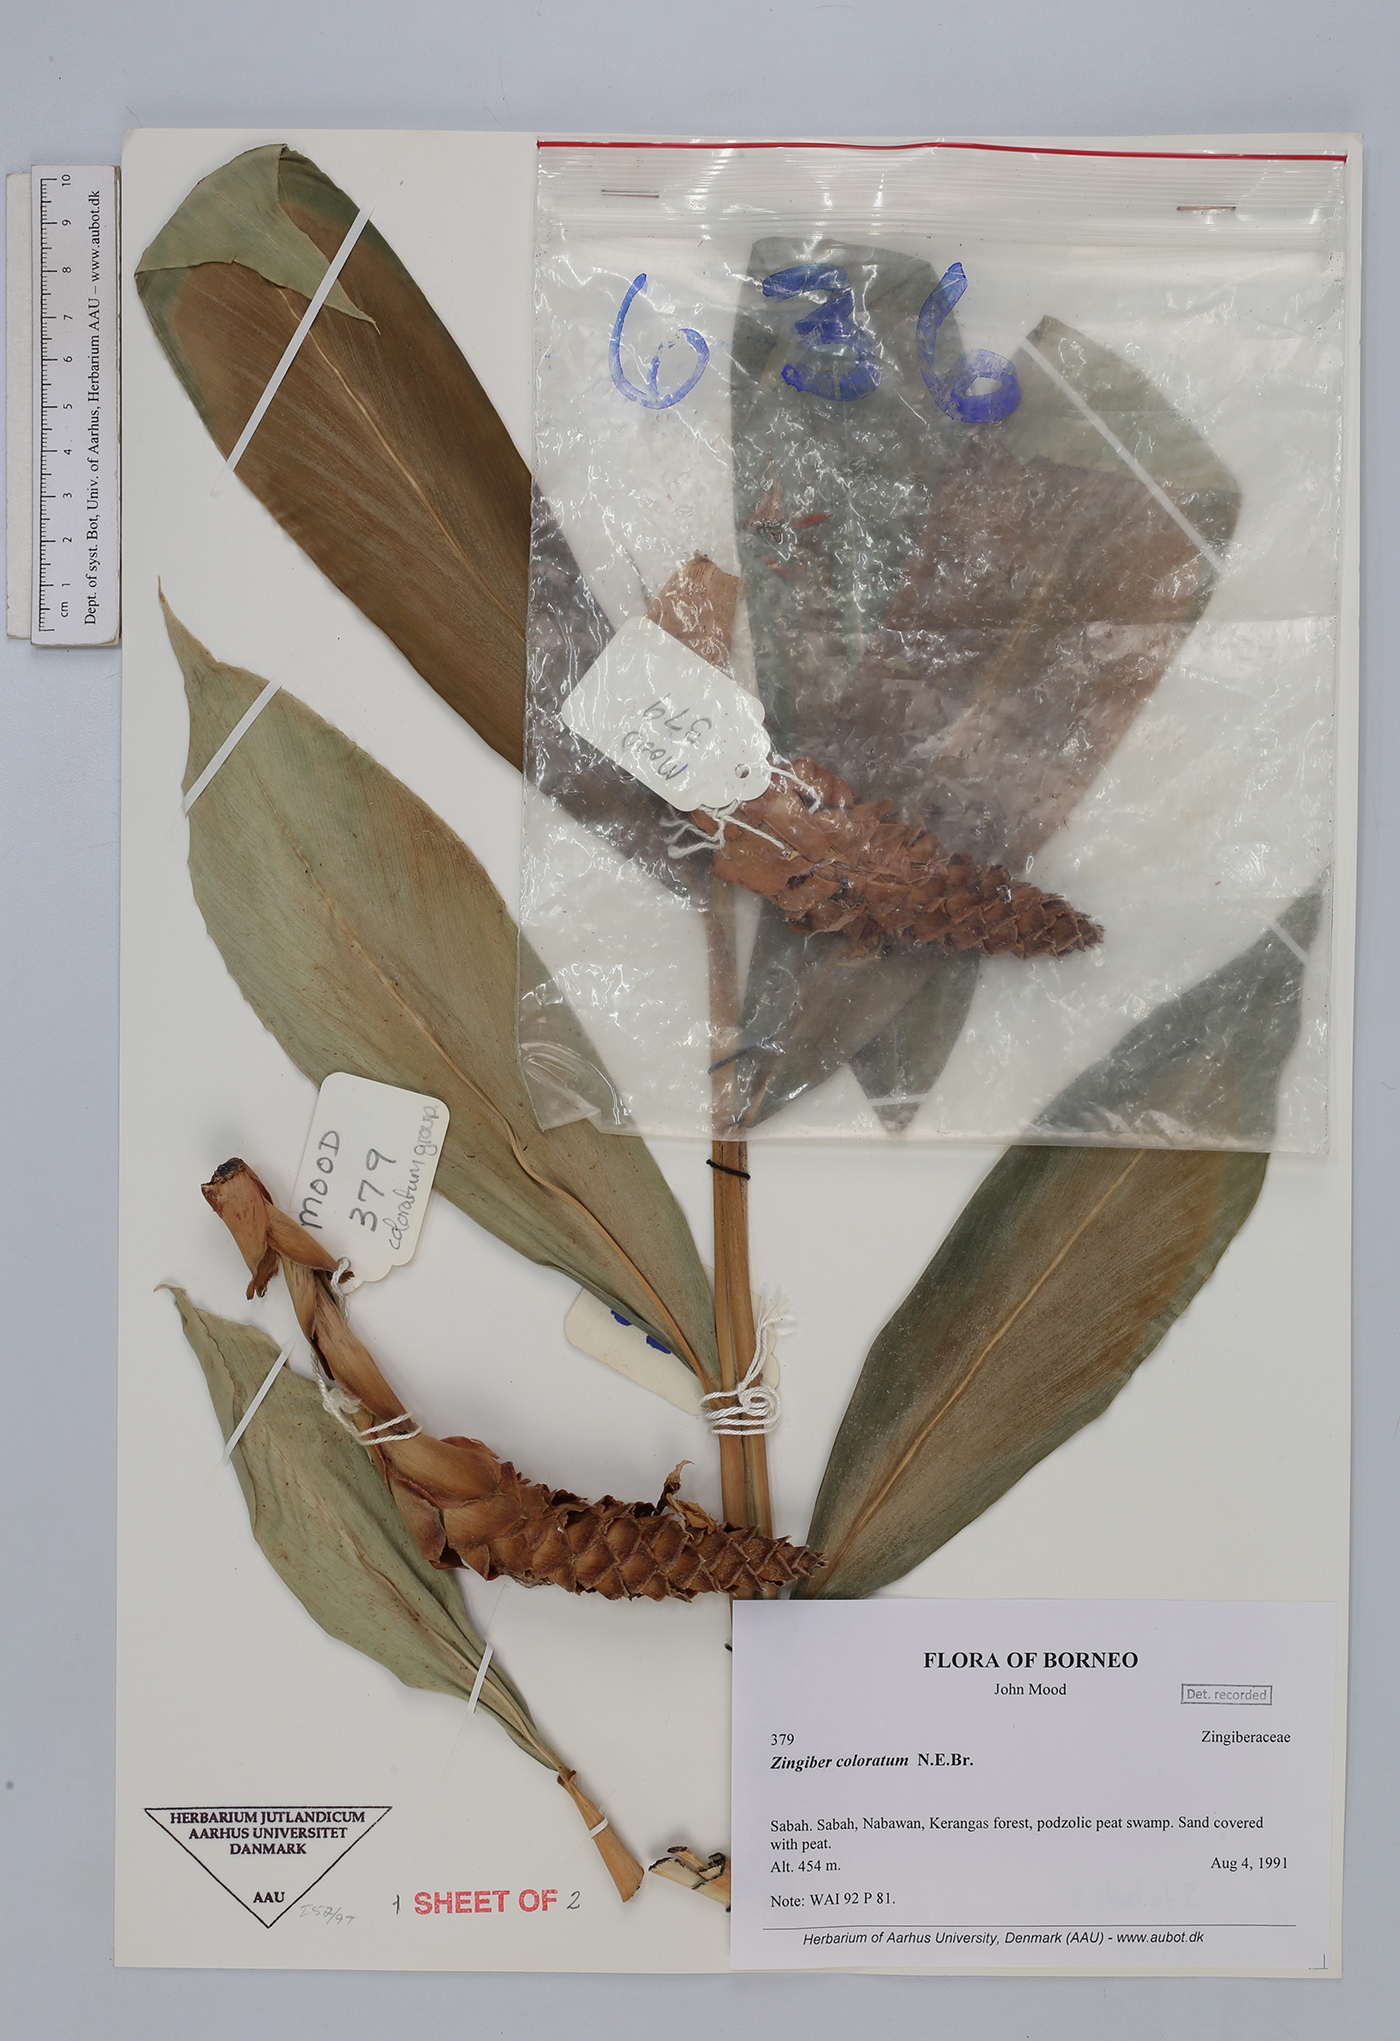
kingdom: Plantae
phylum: Tracheophyta
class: Liliopsida
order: Zingiberales
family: Zingiberaceae
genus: Zingiber
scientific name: Zingiber coloratum
